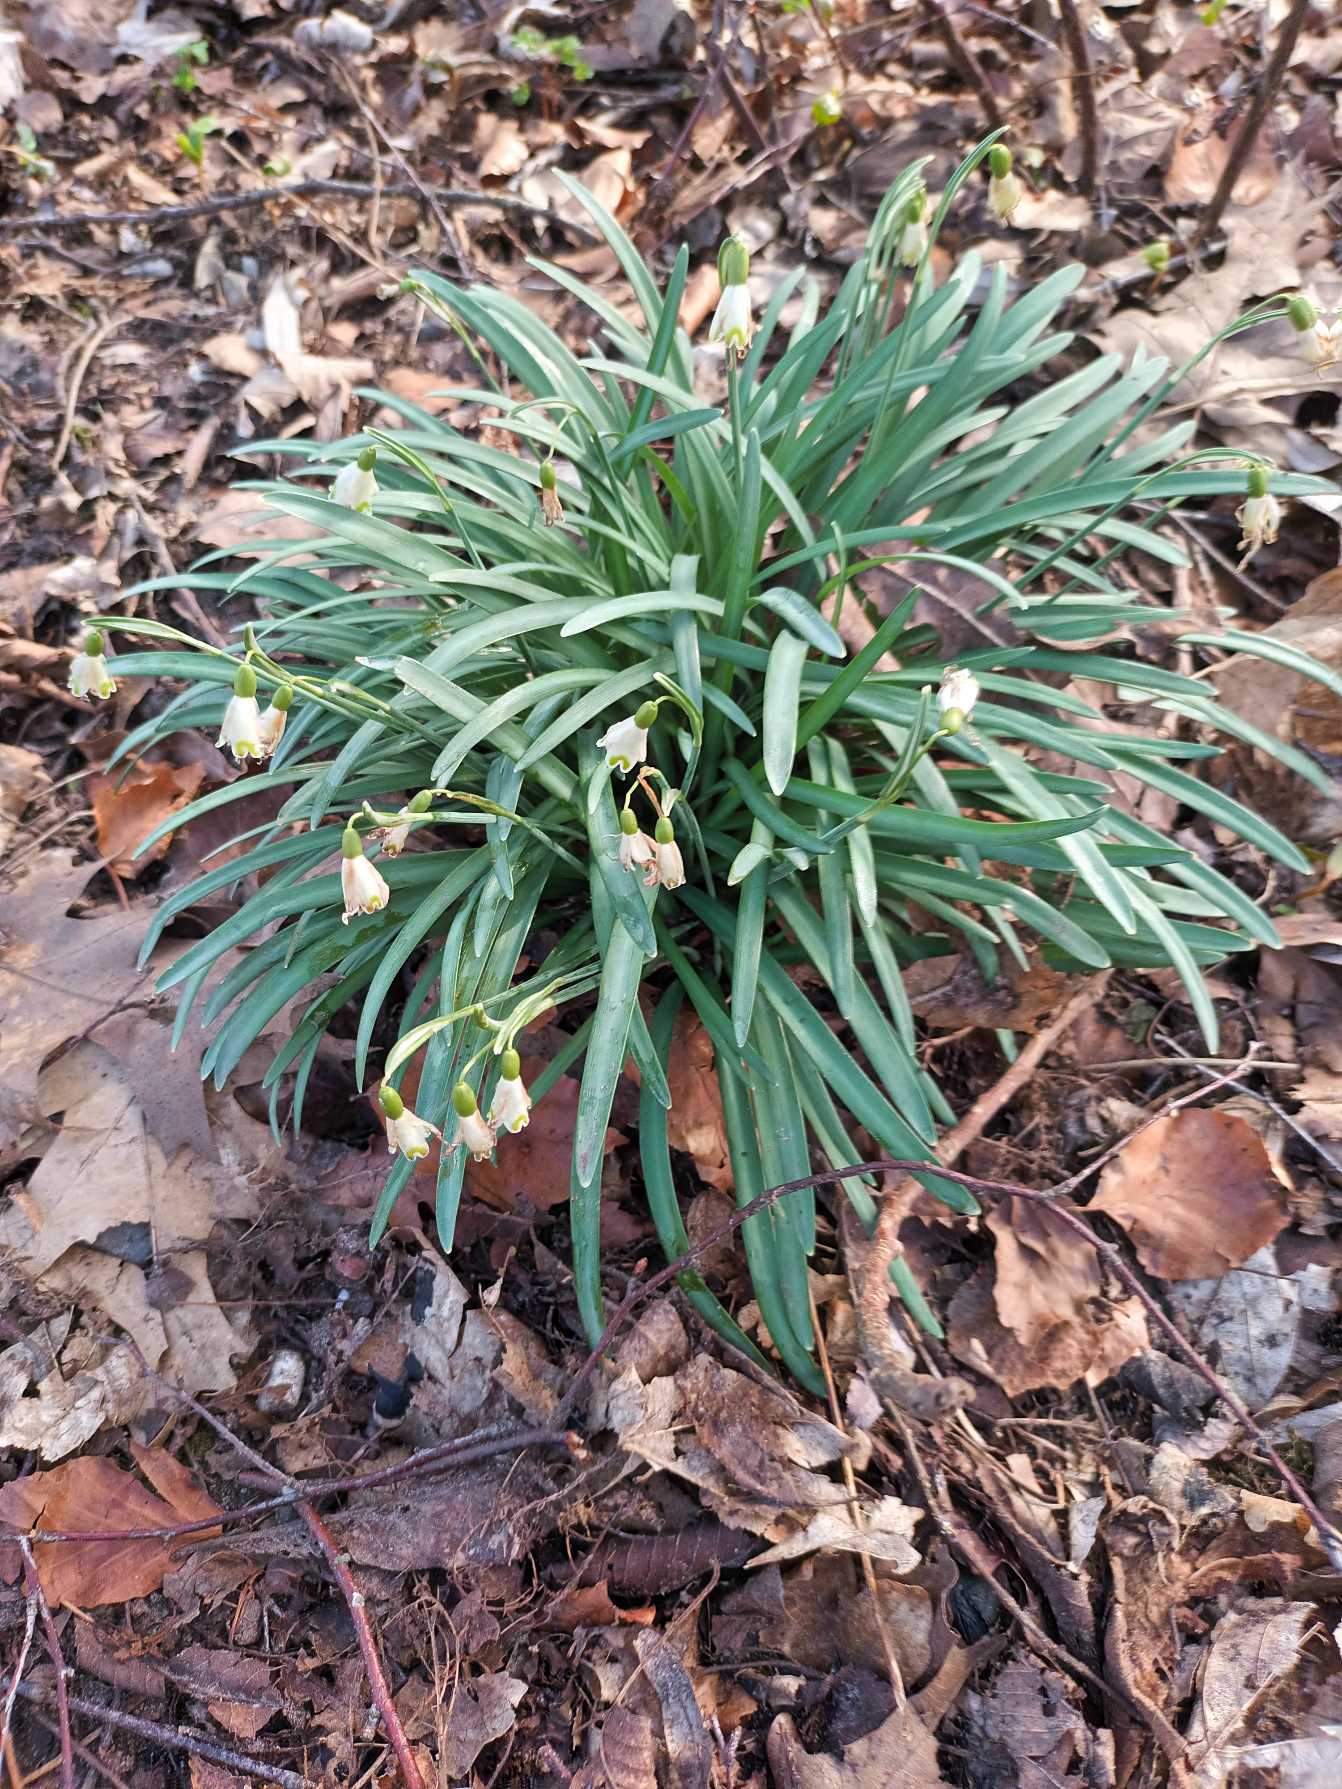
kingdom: Plantae
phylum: Tracheophyta
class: Liliopsida
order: Asparagales
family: Amaryllidaceae
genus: Galanthus
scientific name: Galanthus nivalis
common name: Vintergæk
